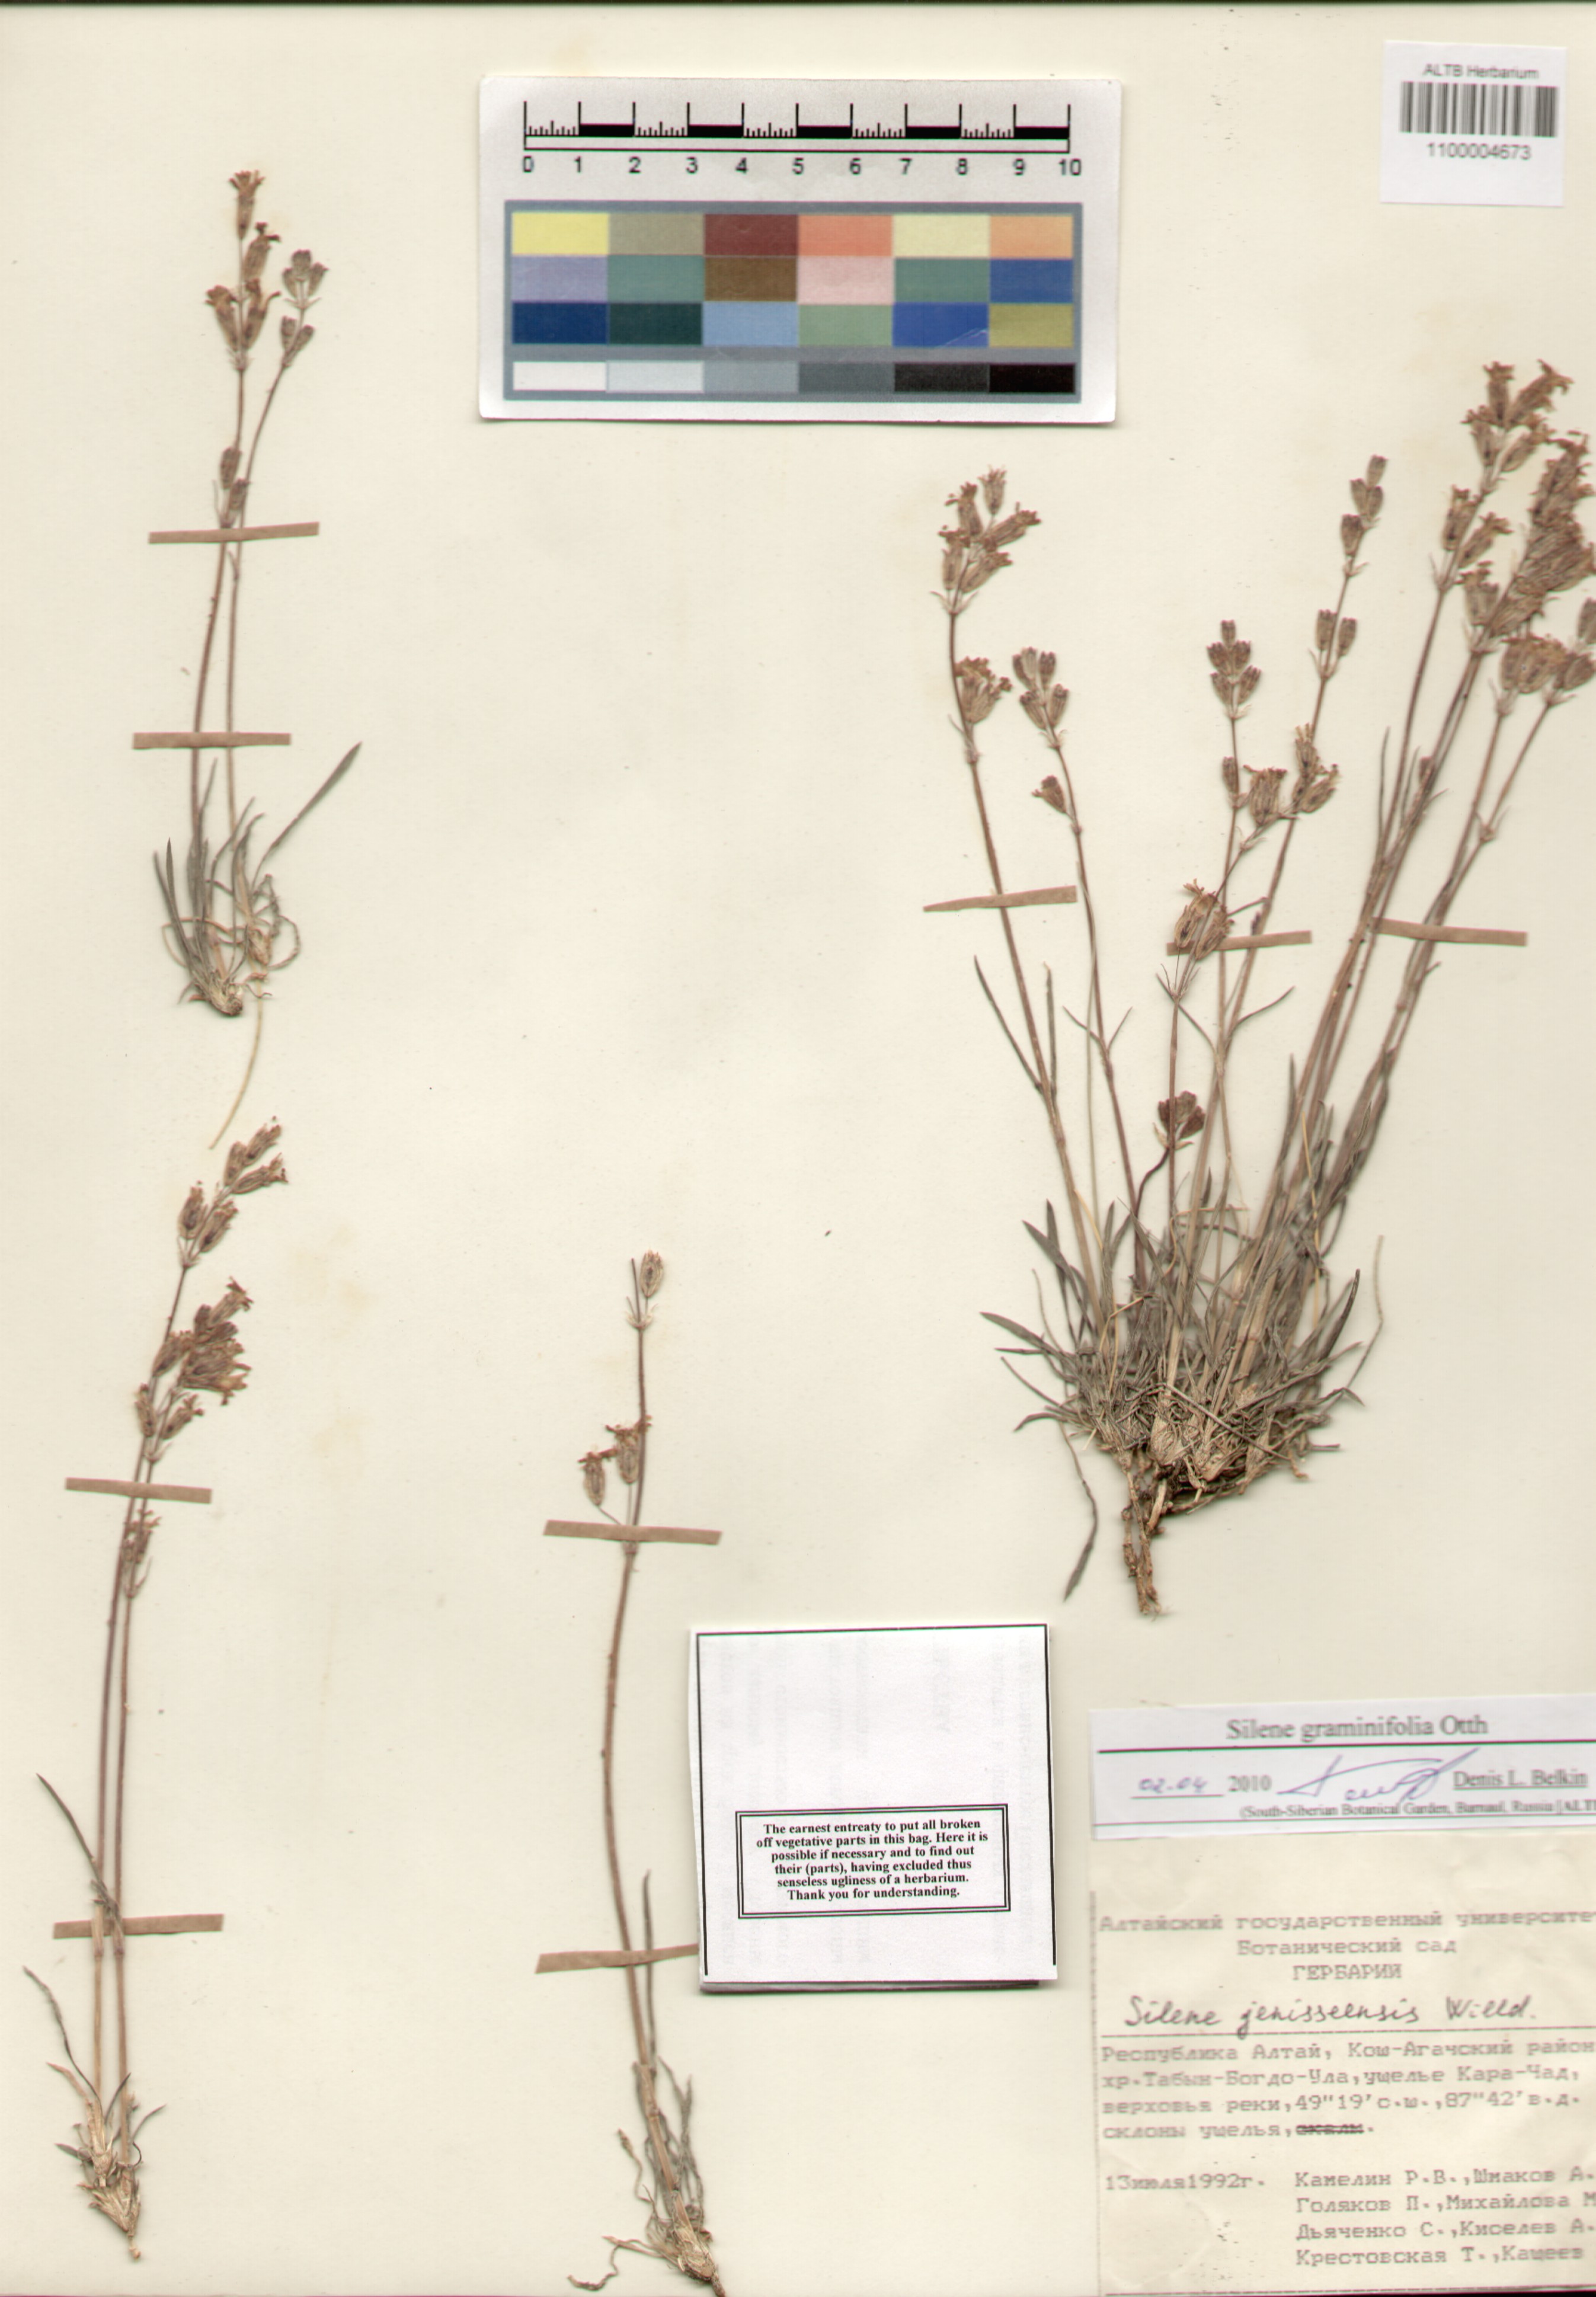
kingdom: Plantae
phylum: Tracheophyta
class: Magnoliopsida
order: Caryophyllales
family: Caryophyllaceae
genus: Silene
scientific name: Silene graminifolia
